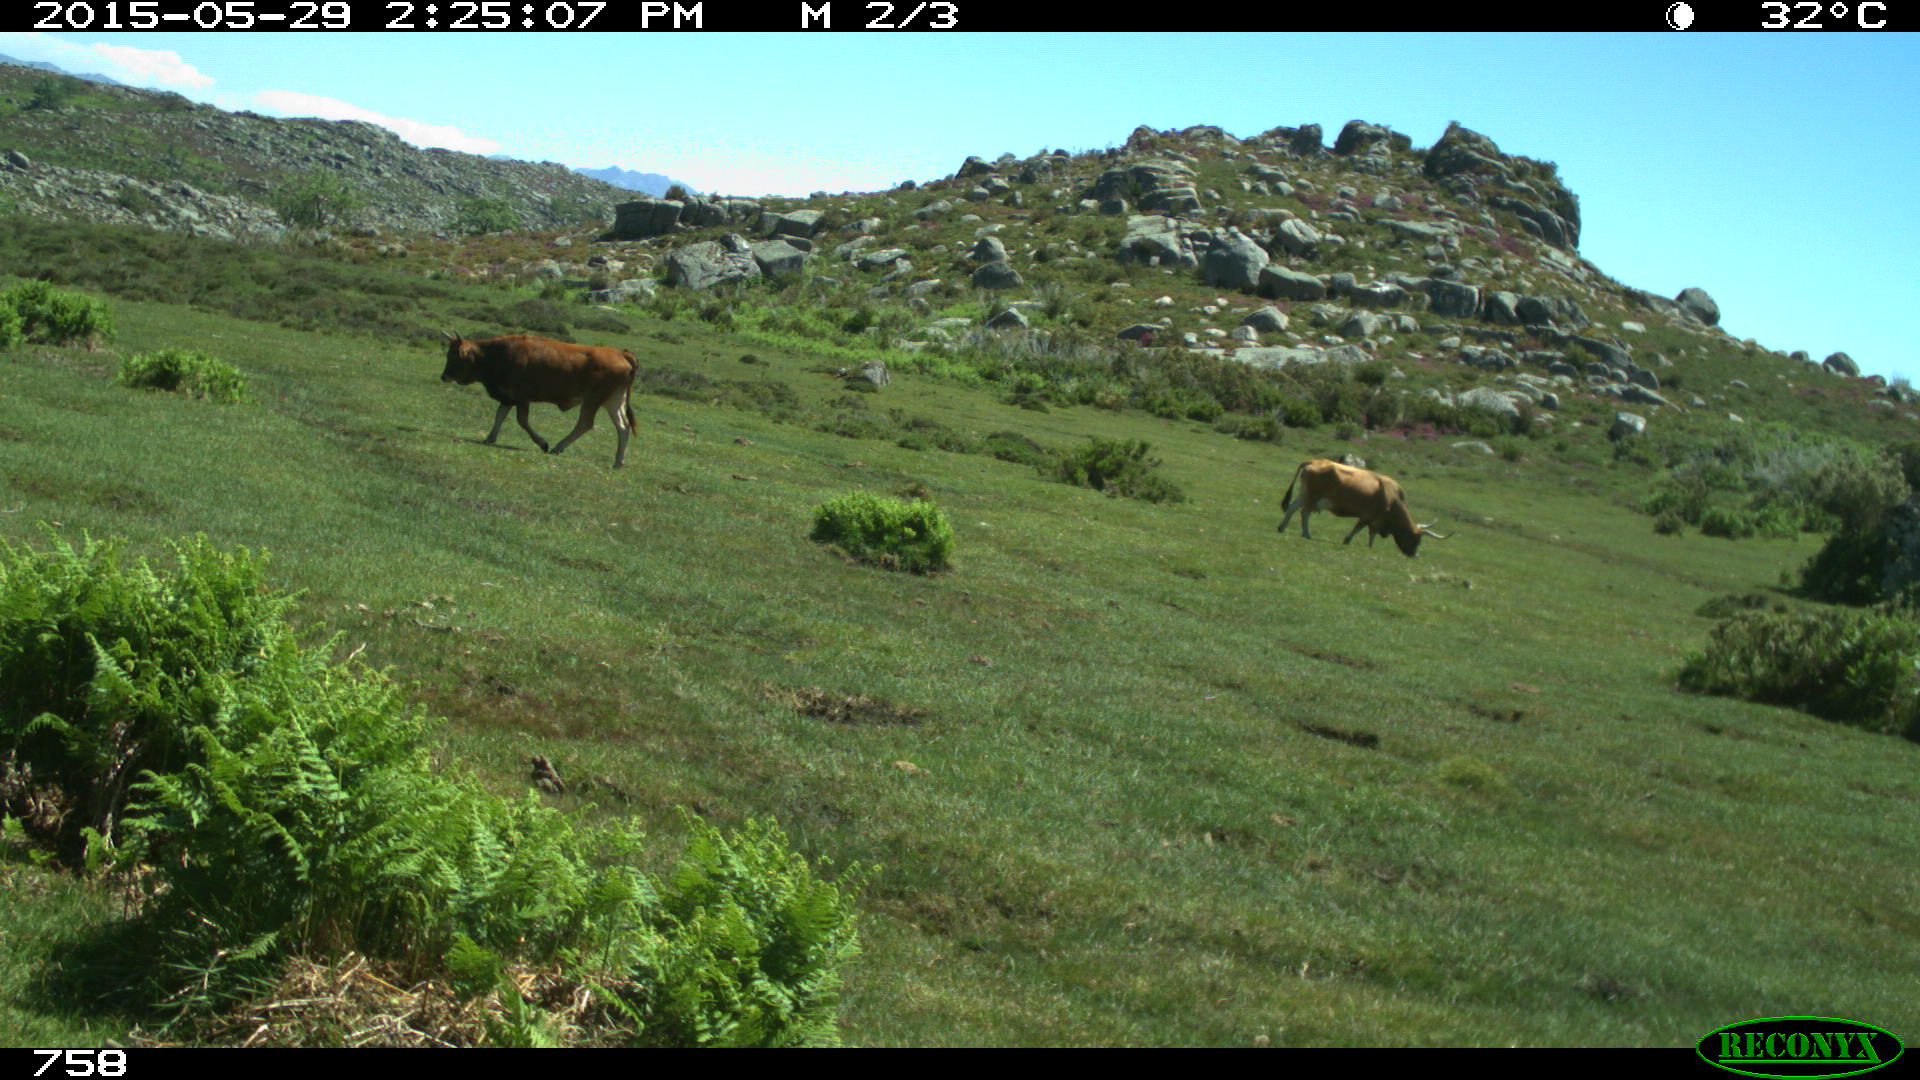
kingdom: Animalia
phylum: Chordata
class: Mammalia
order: Artiodactyla
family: Bovidae
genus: Bos
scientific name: Bos taurus
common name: Domesticated cattle
